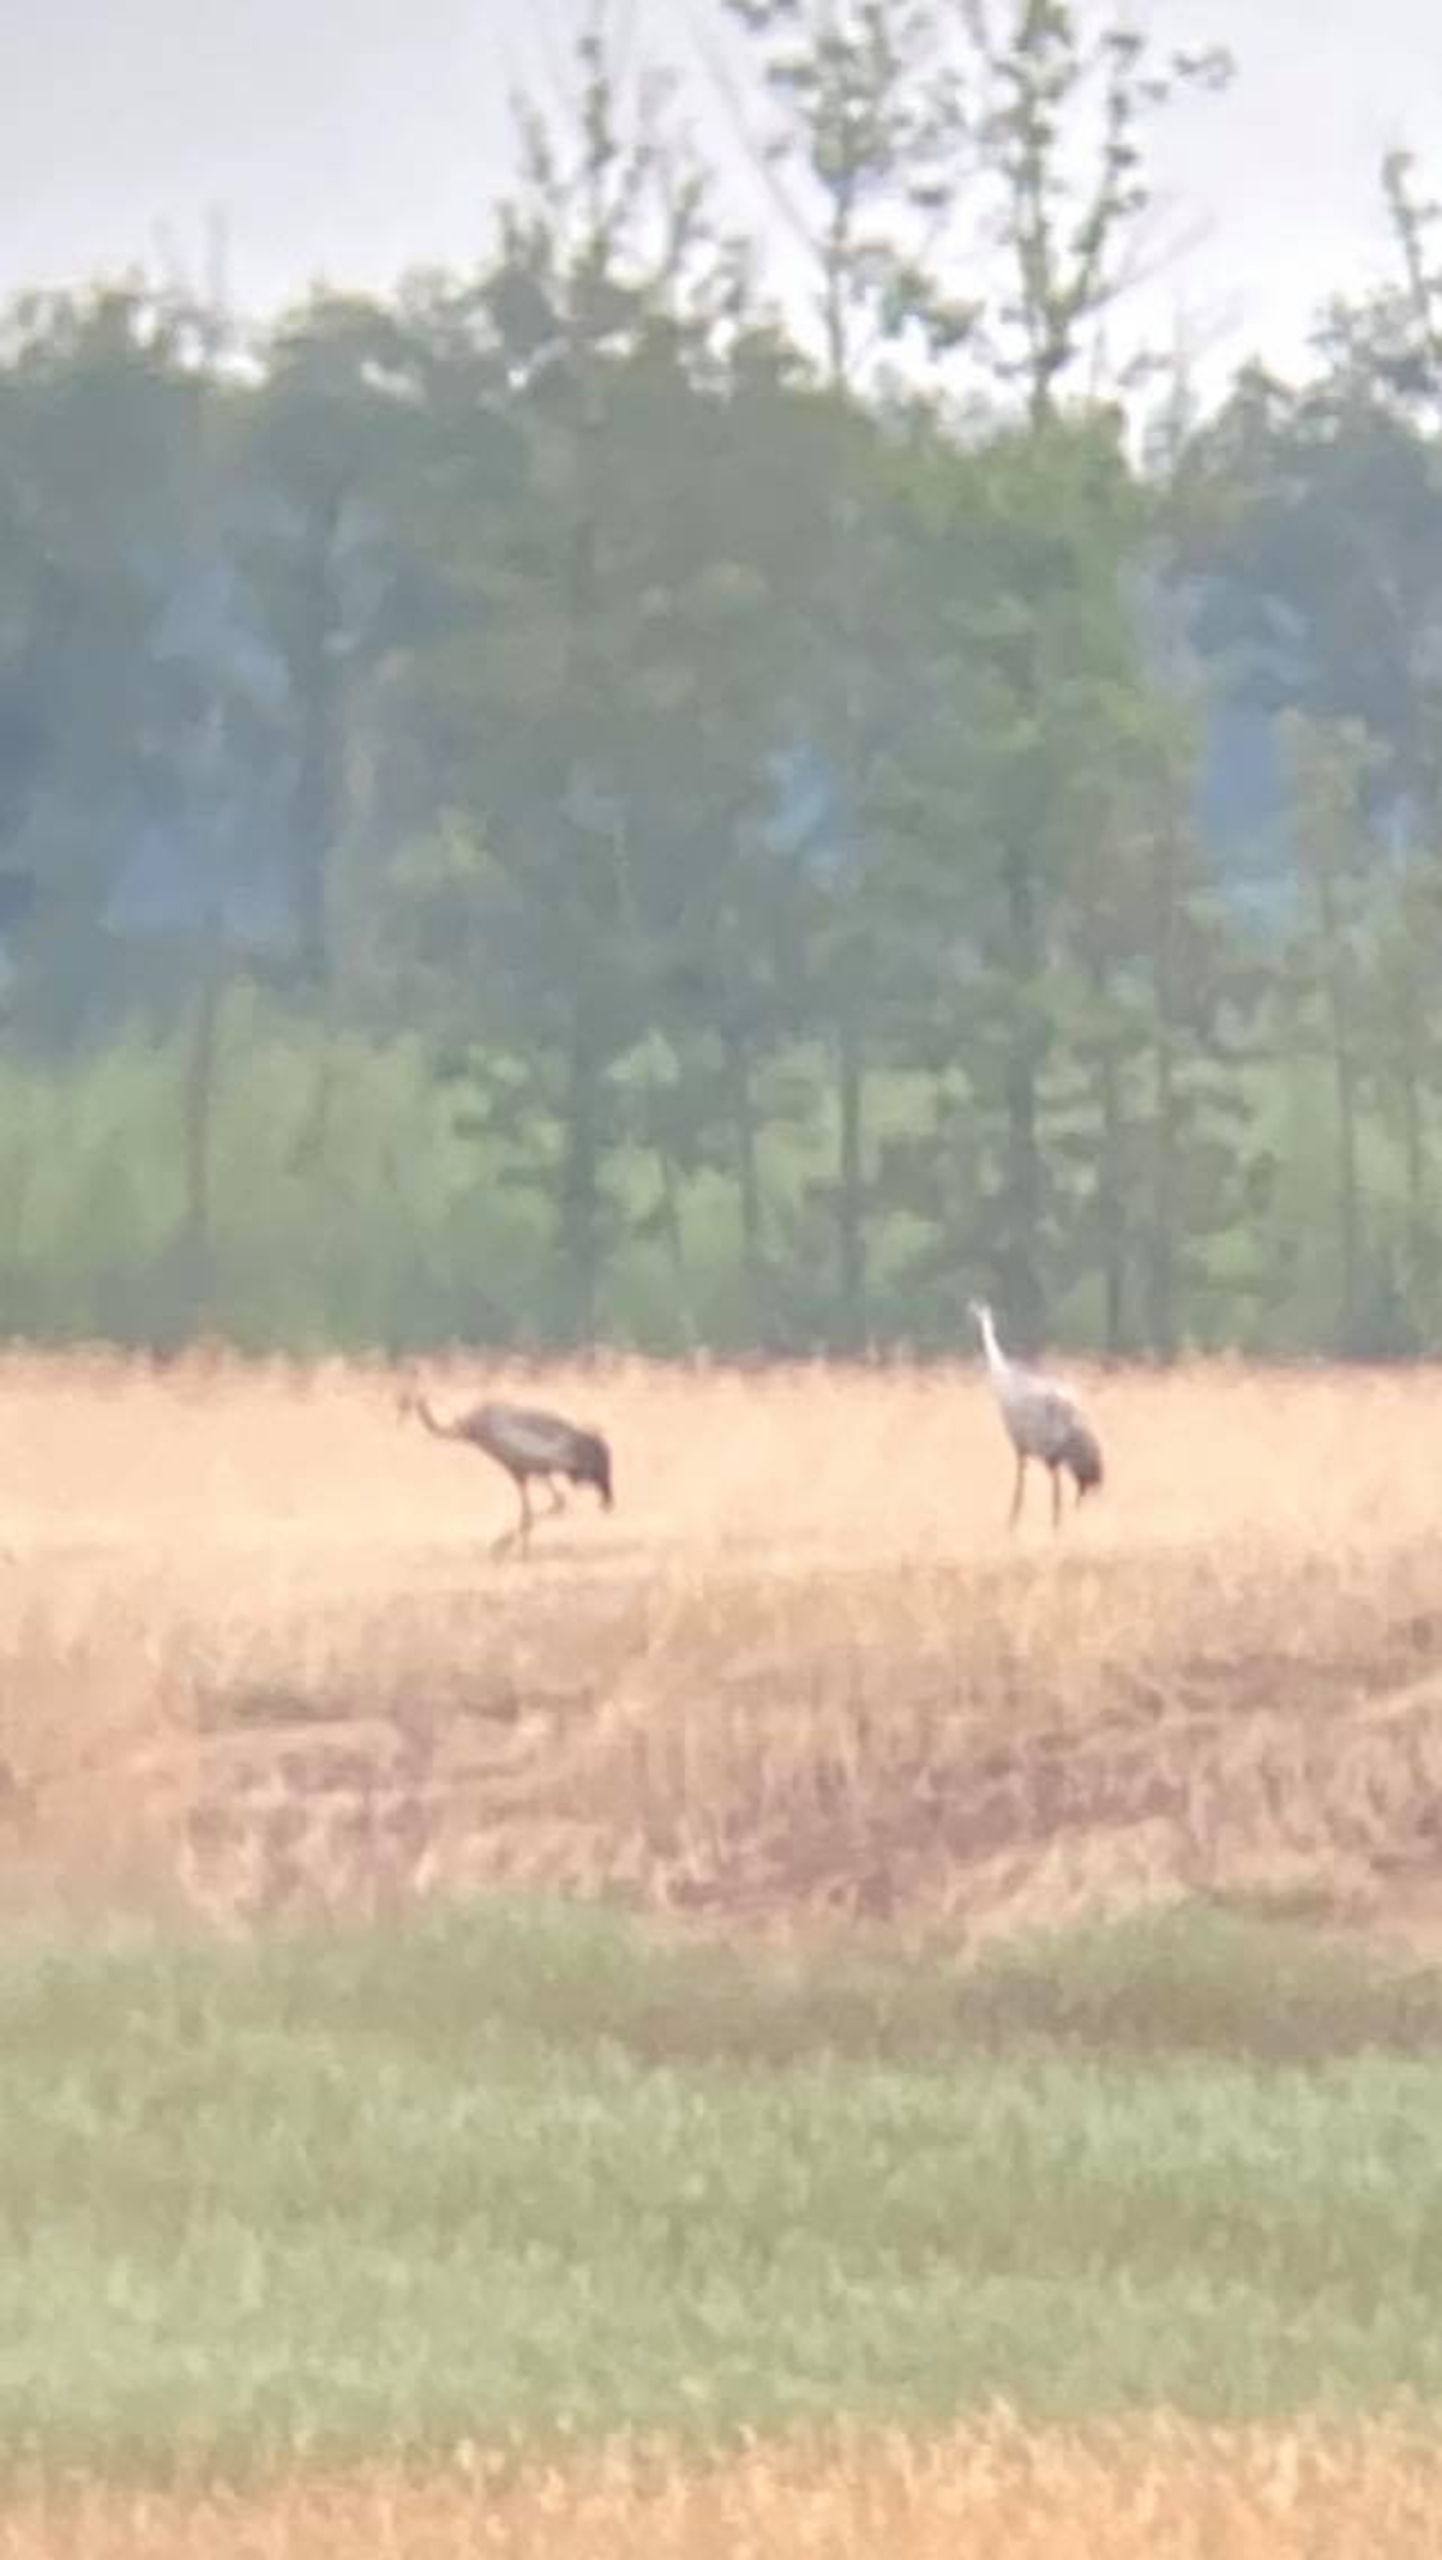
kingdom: Animalia
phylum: Chordata
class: Aves
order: Gruiformes
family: Gruidae
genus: Grus
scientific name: Grus grus
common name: Trane
